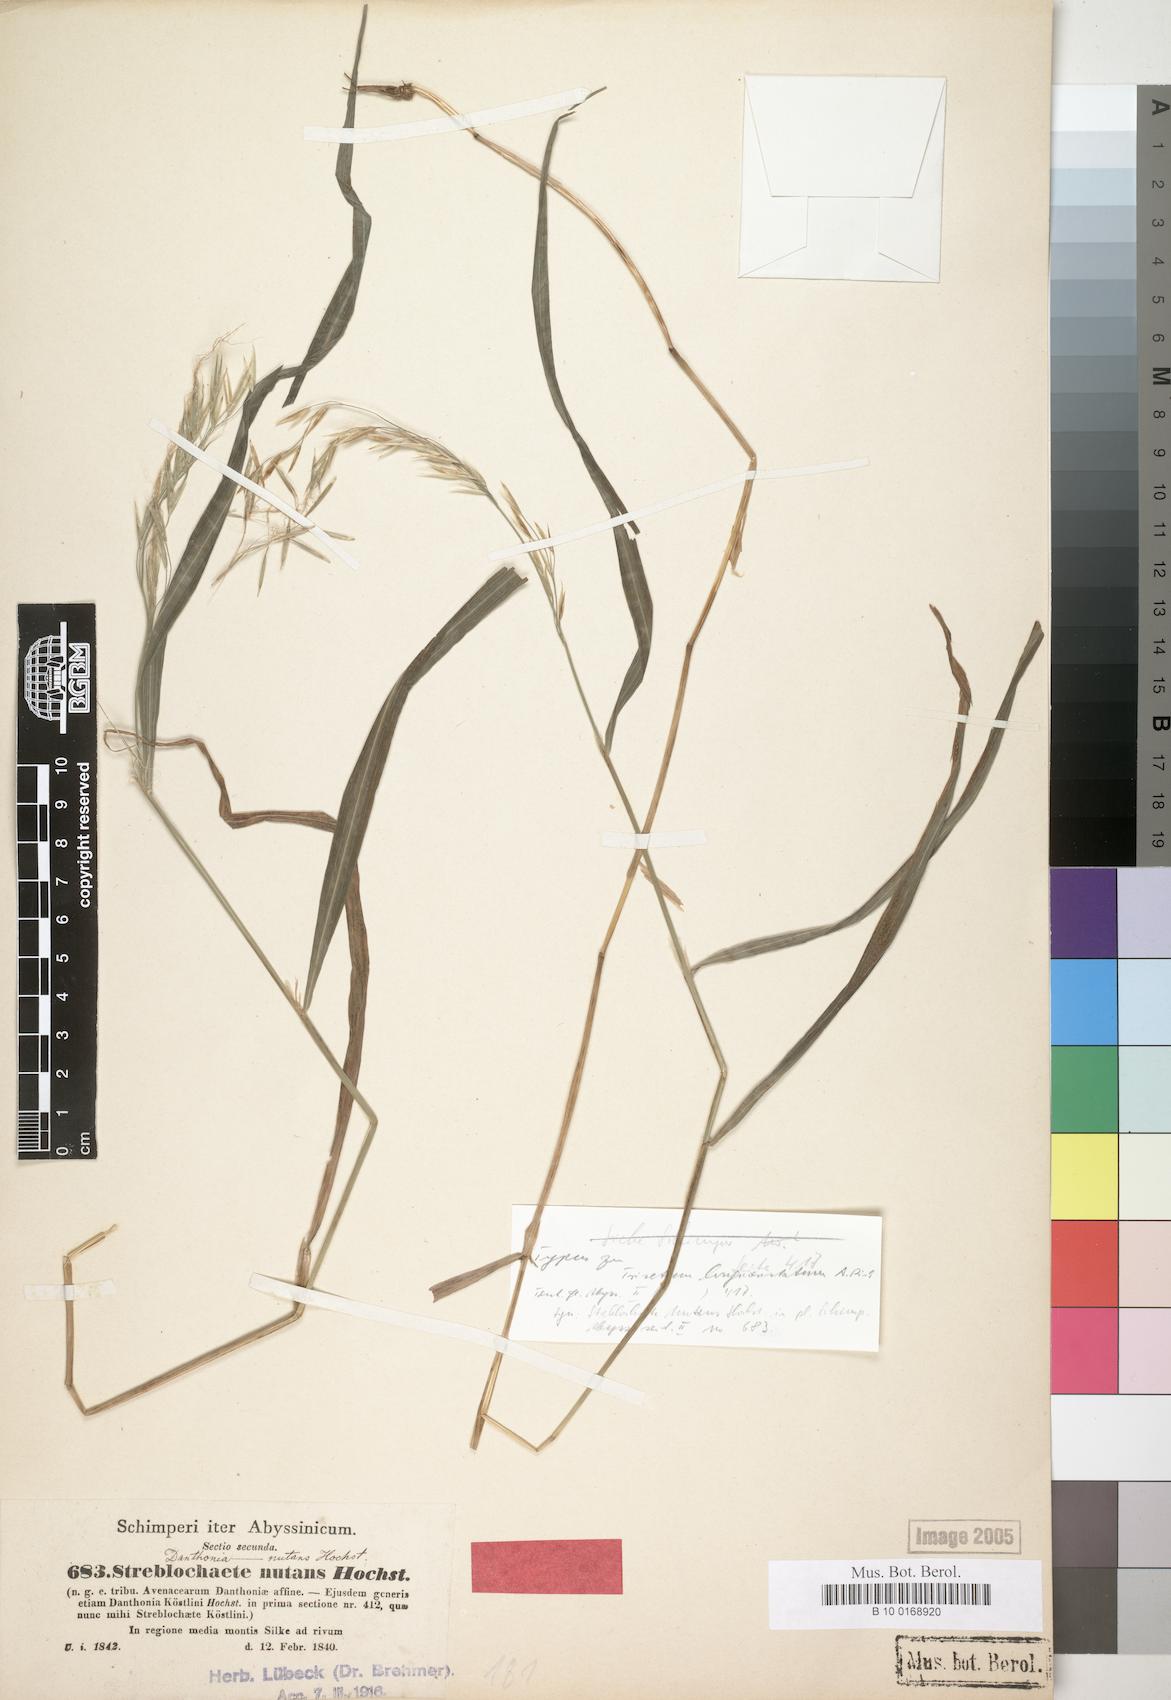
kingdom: Plantae
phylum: Tracheophyta
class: Liliopsida
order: Poales
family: Poaceae
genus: Streblochaete
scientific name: Streblochaete nutans
